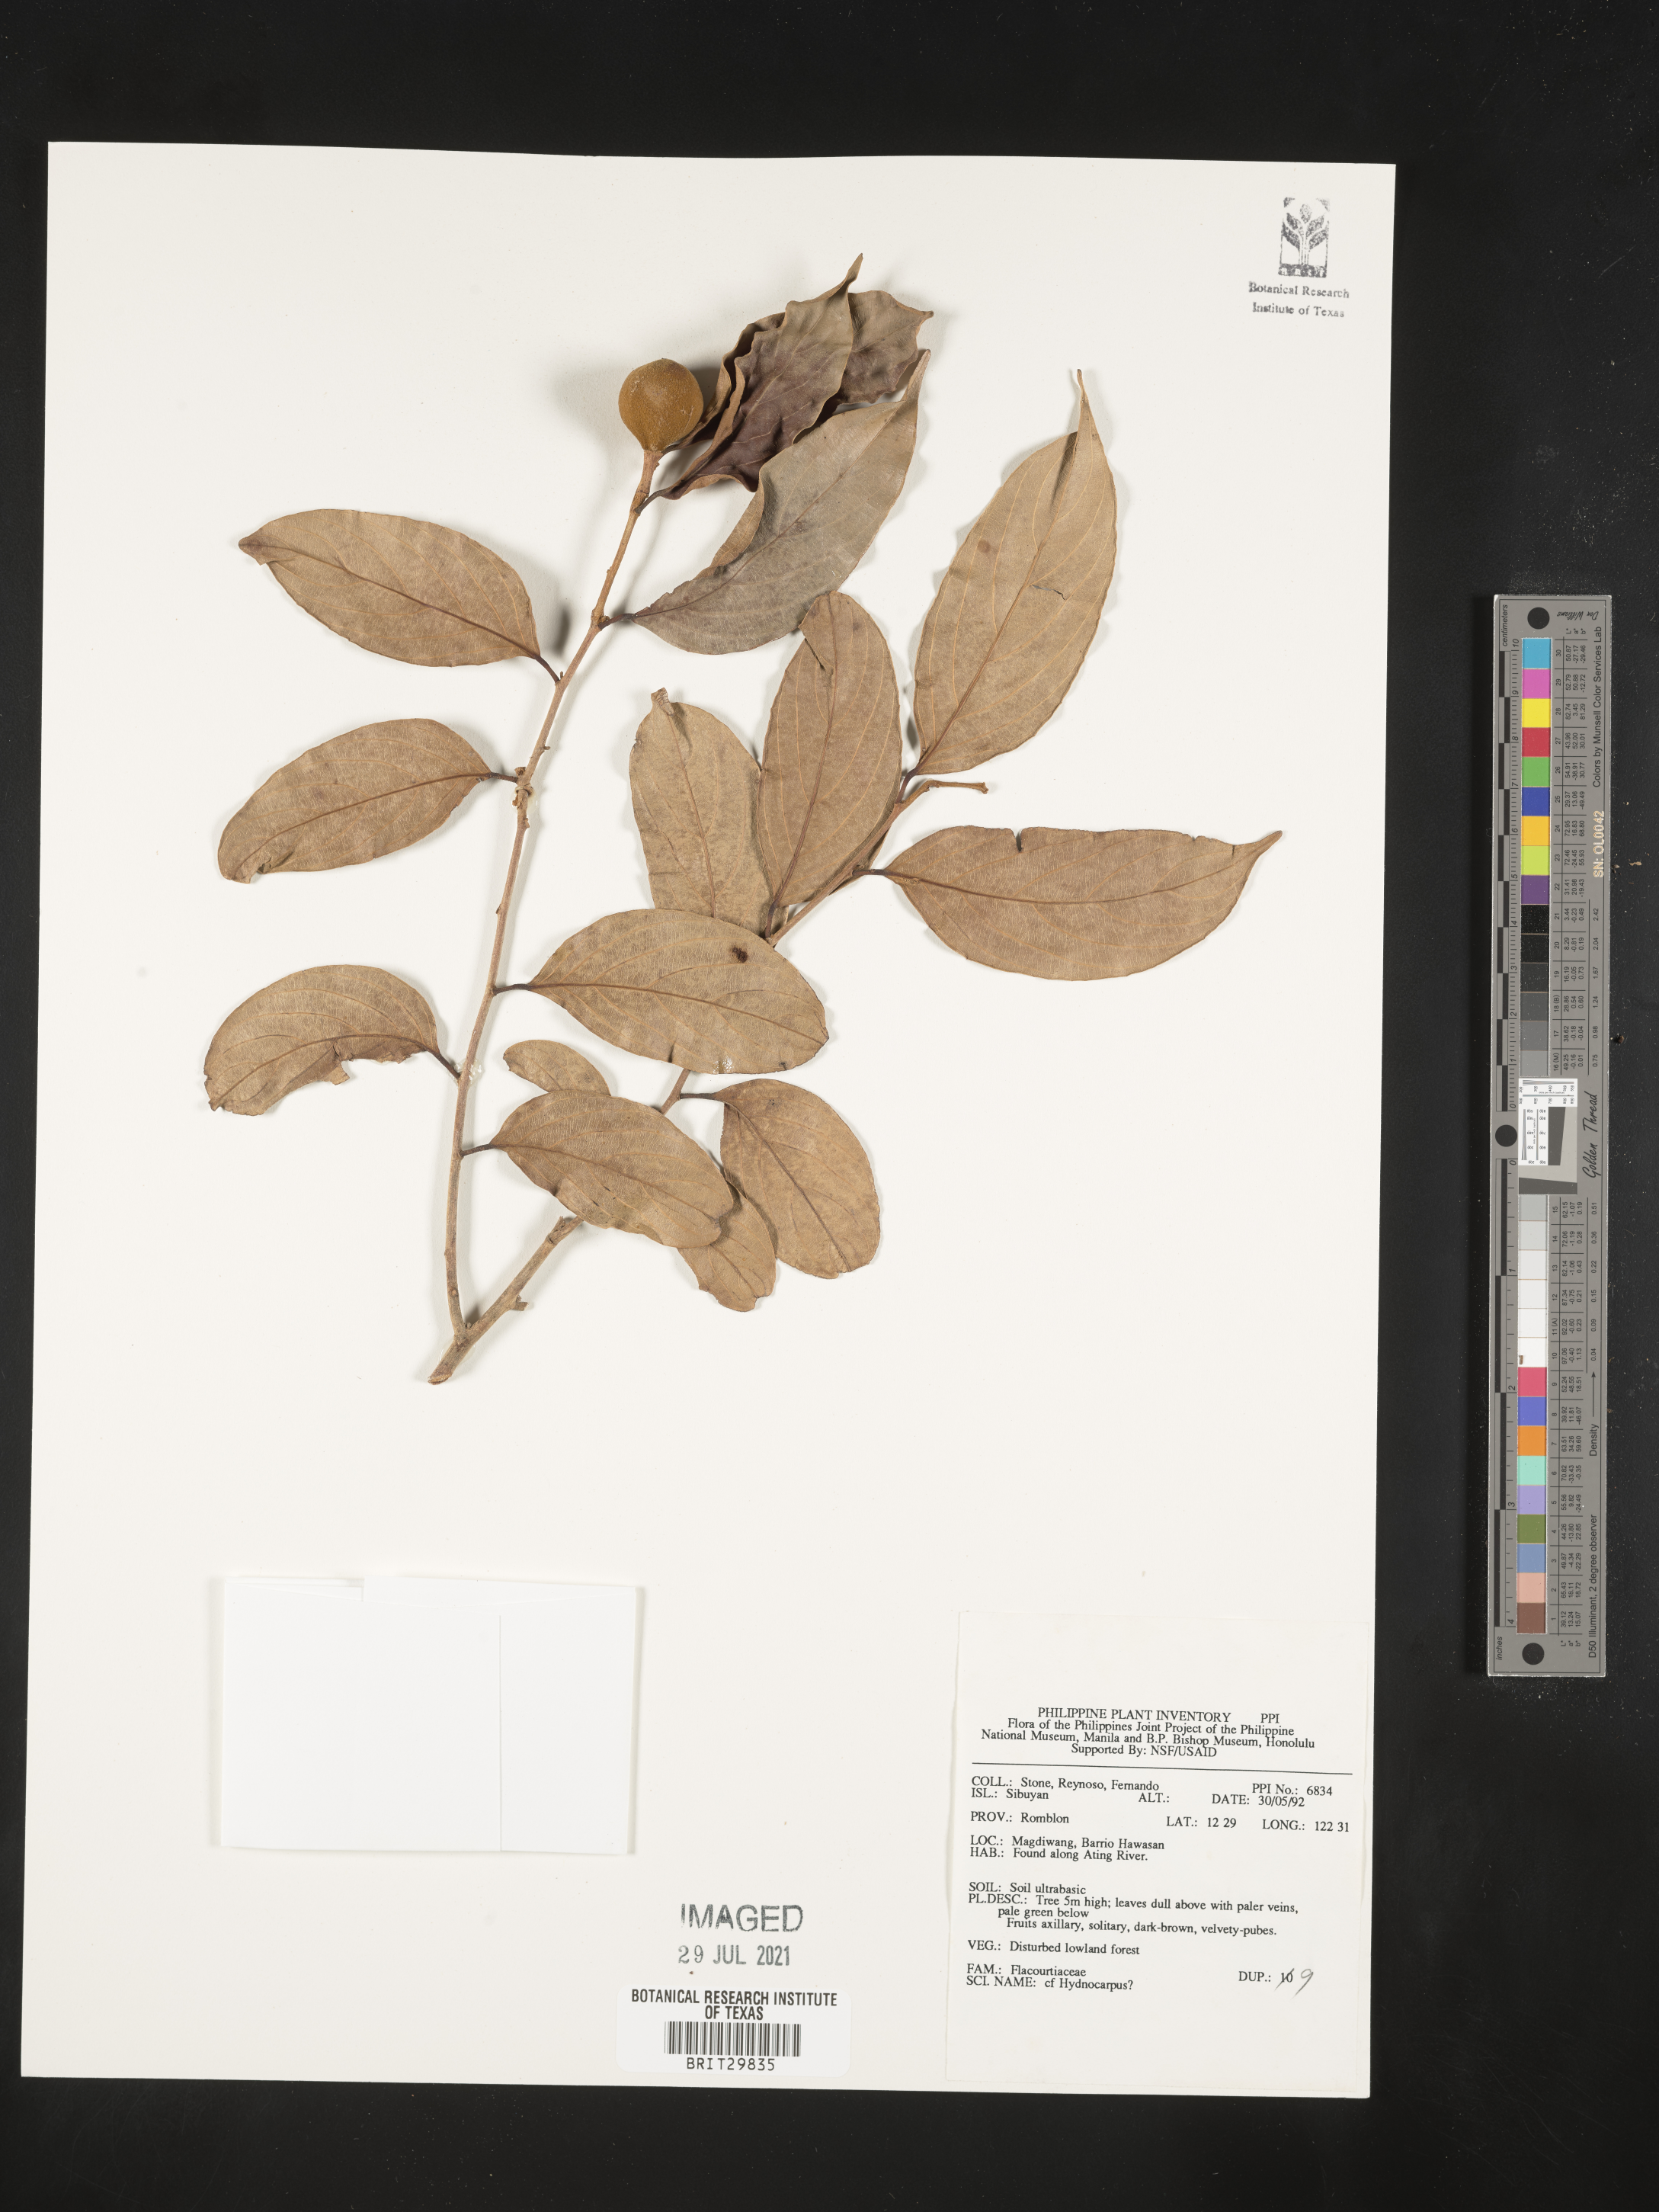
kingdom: Plantae
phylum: Tracheophyta
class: Magnoliopsida
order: Malpighiales
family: Achariaceae
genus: Hydnocarpus
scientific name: Hydnocarpus
